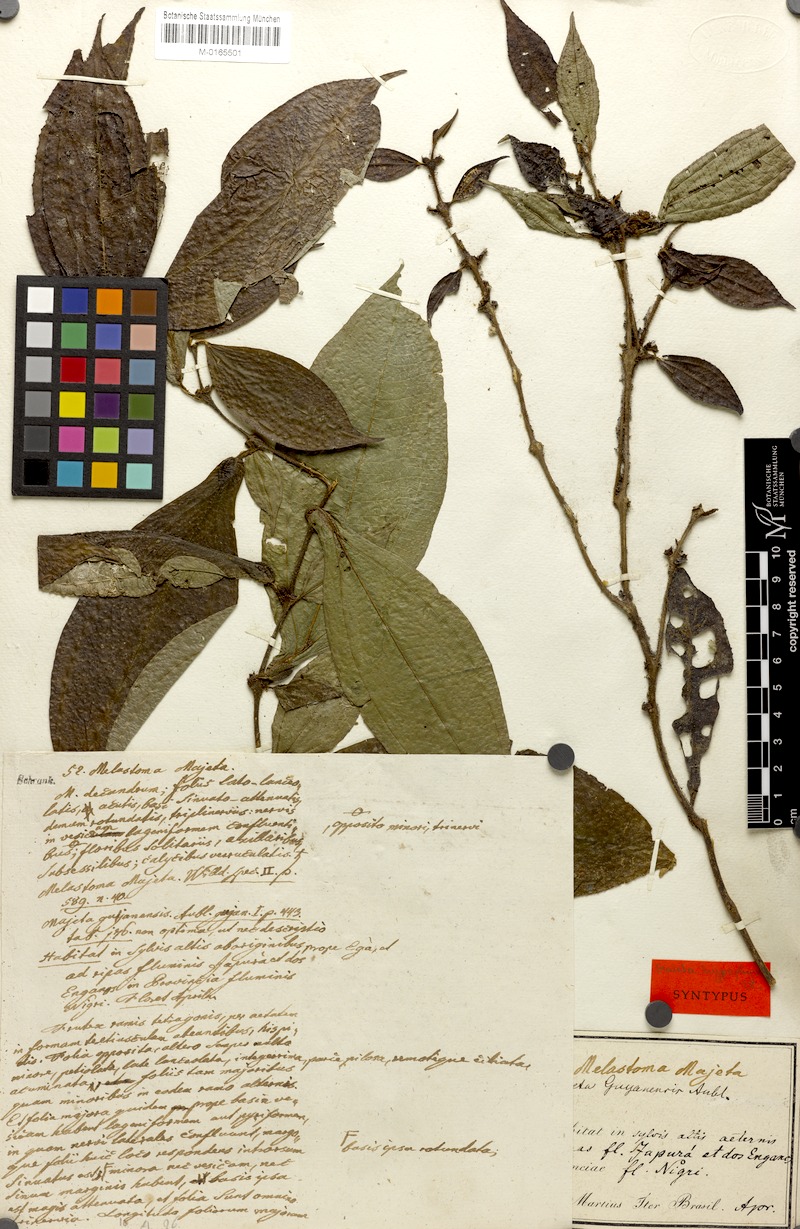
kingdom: Plantae
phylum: Tracheophyta
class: Magnoliopsida
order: Myrtales
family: Melastomataceae
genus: Miconia
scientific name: Miconia mayeta
